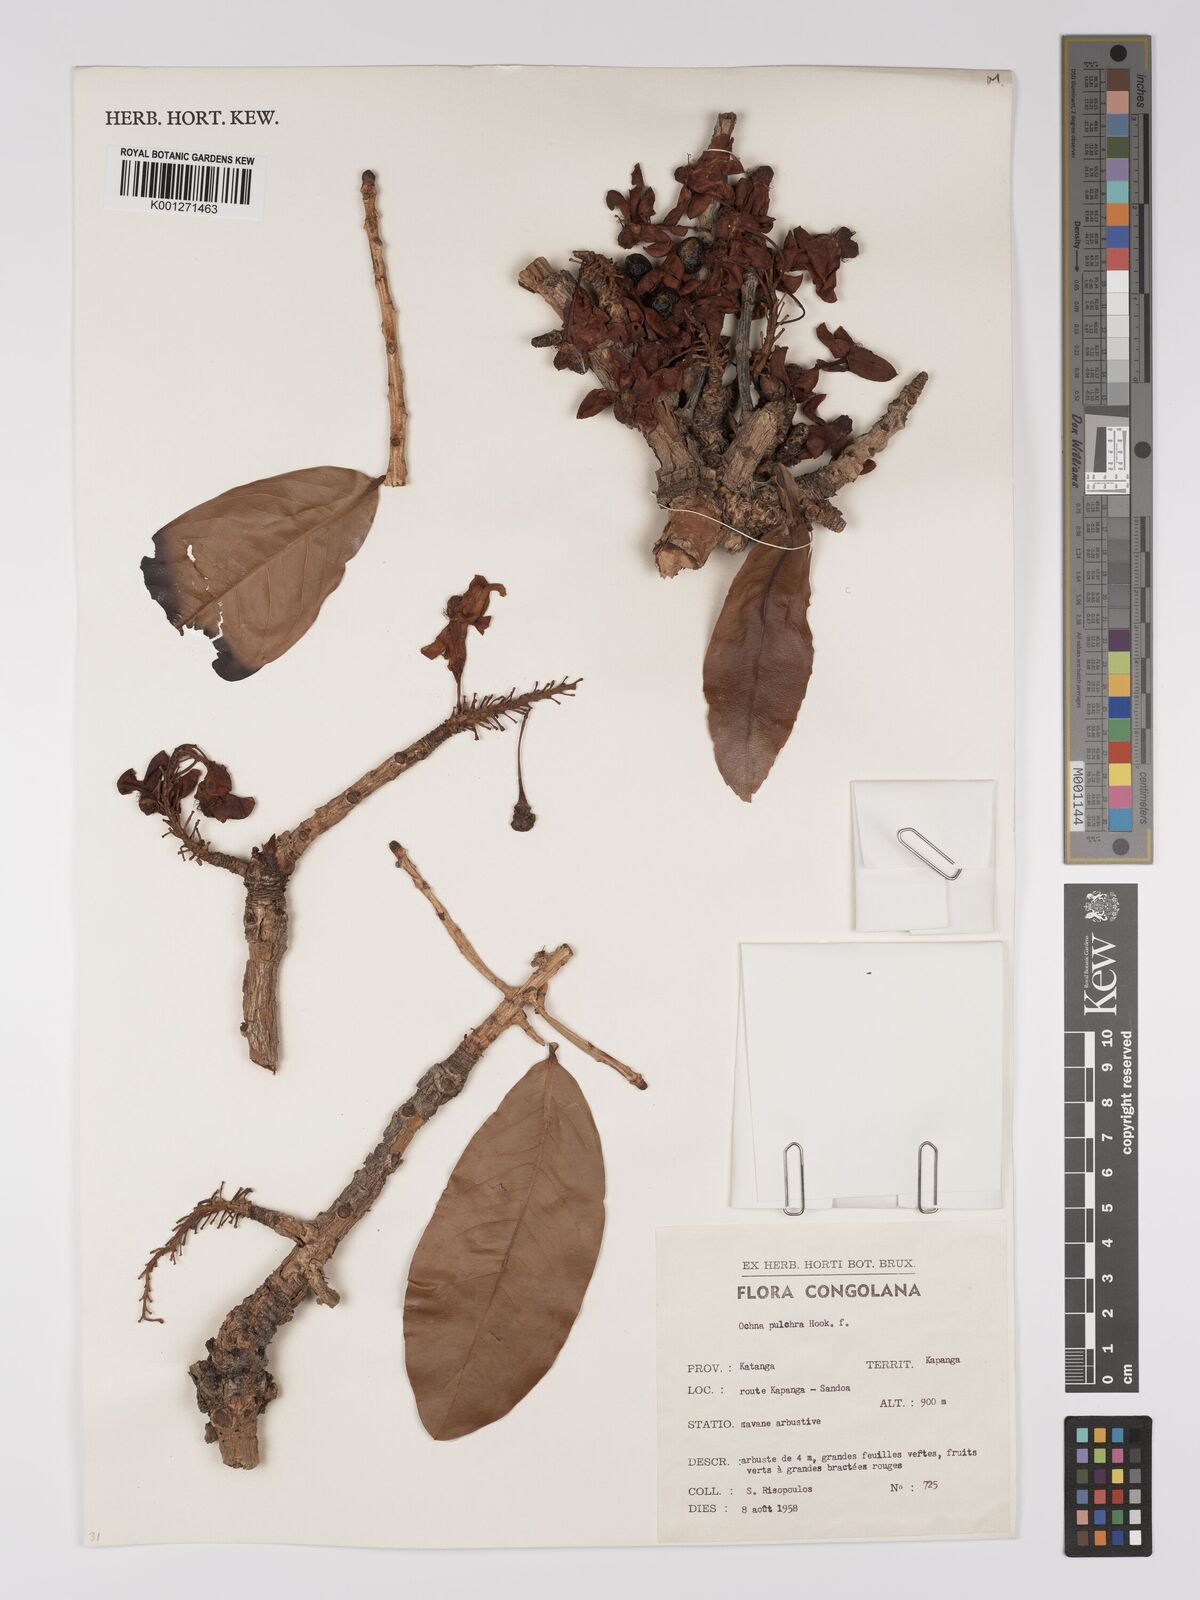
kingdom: Plantae
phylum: Tracheophyta
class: Magnoliopsida
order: Malpighiales
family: Ochnaceae
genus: Ochna
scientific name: Ochna pulchra
